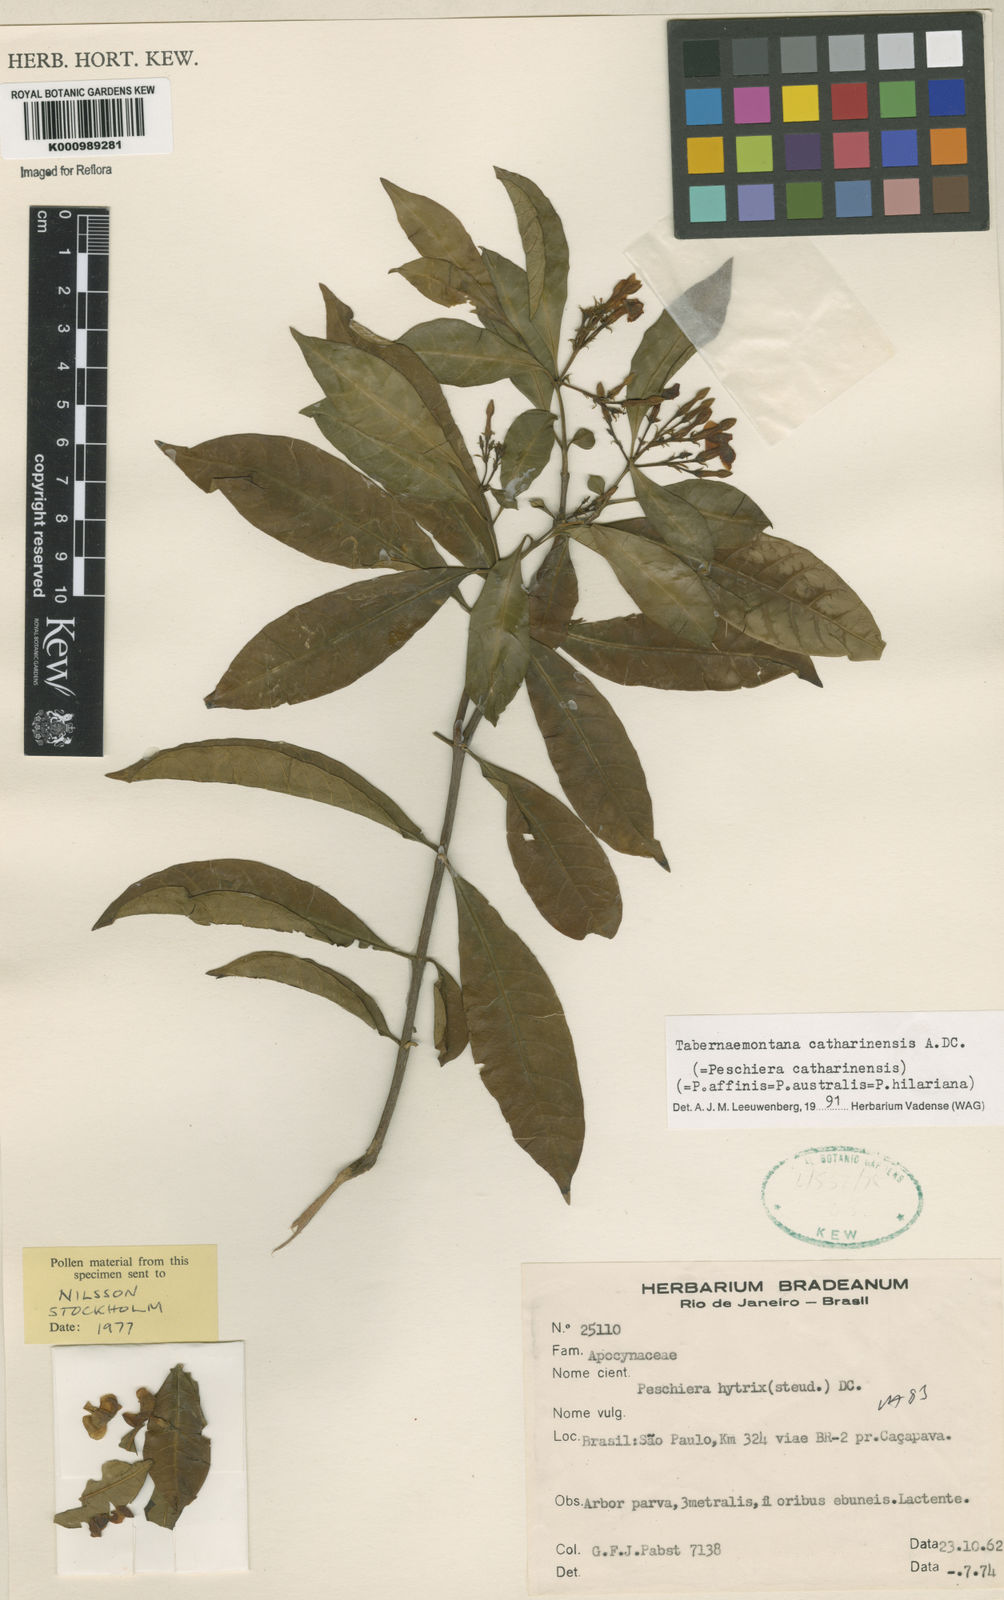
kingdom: Plantae
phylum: Tracheophyta
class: Magnoliopsida
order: Gentianales
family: Apocynaceae
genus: Tabernaemontana
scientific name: Tabernaemontana catharinensis
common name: Pinwheel-flower
